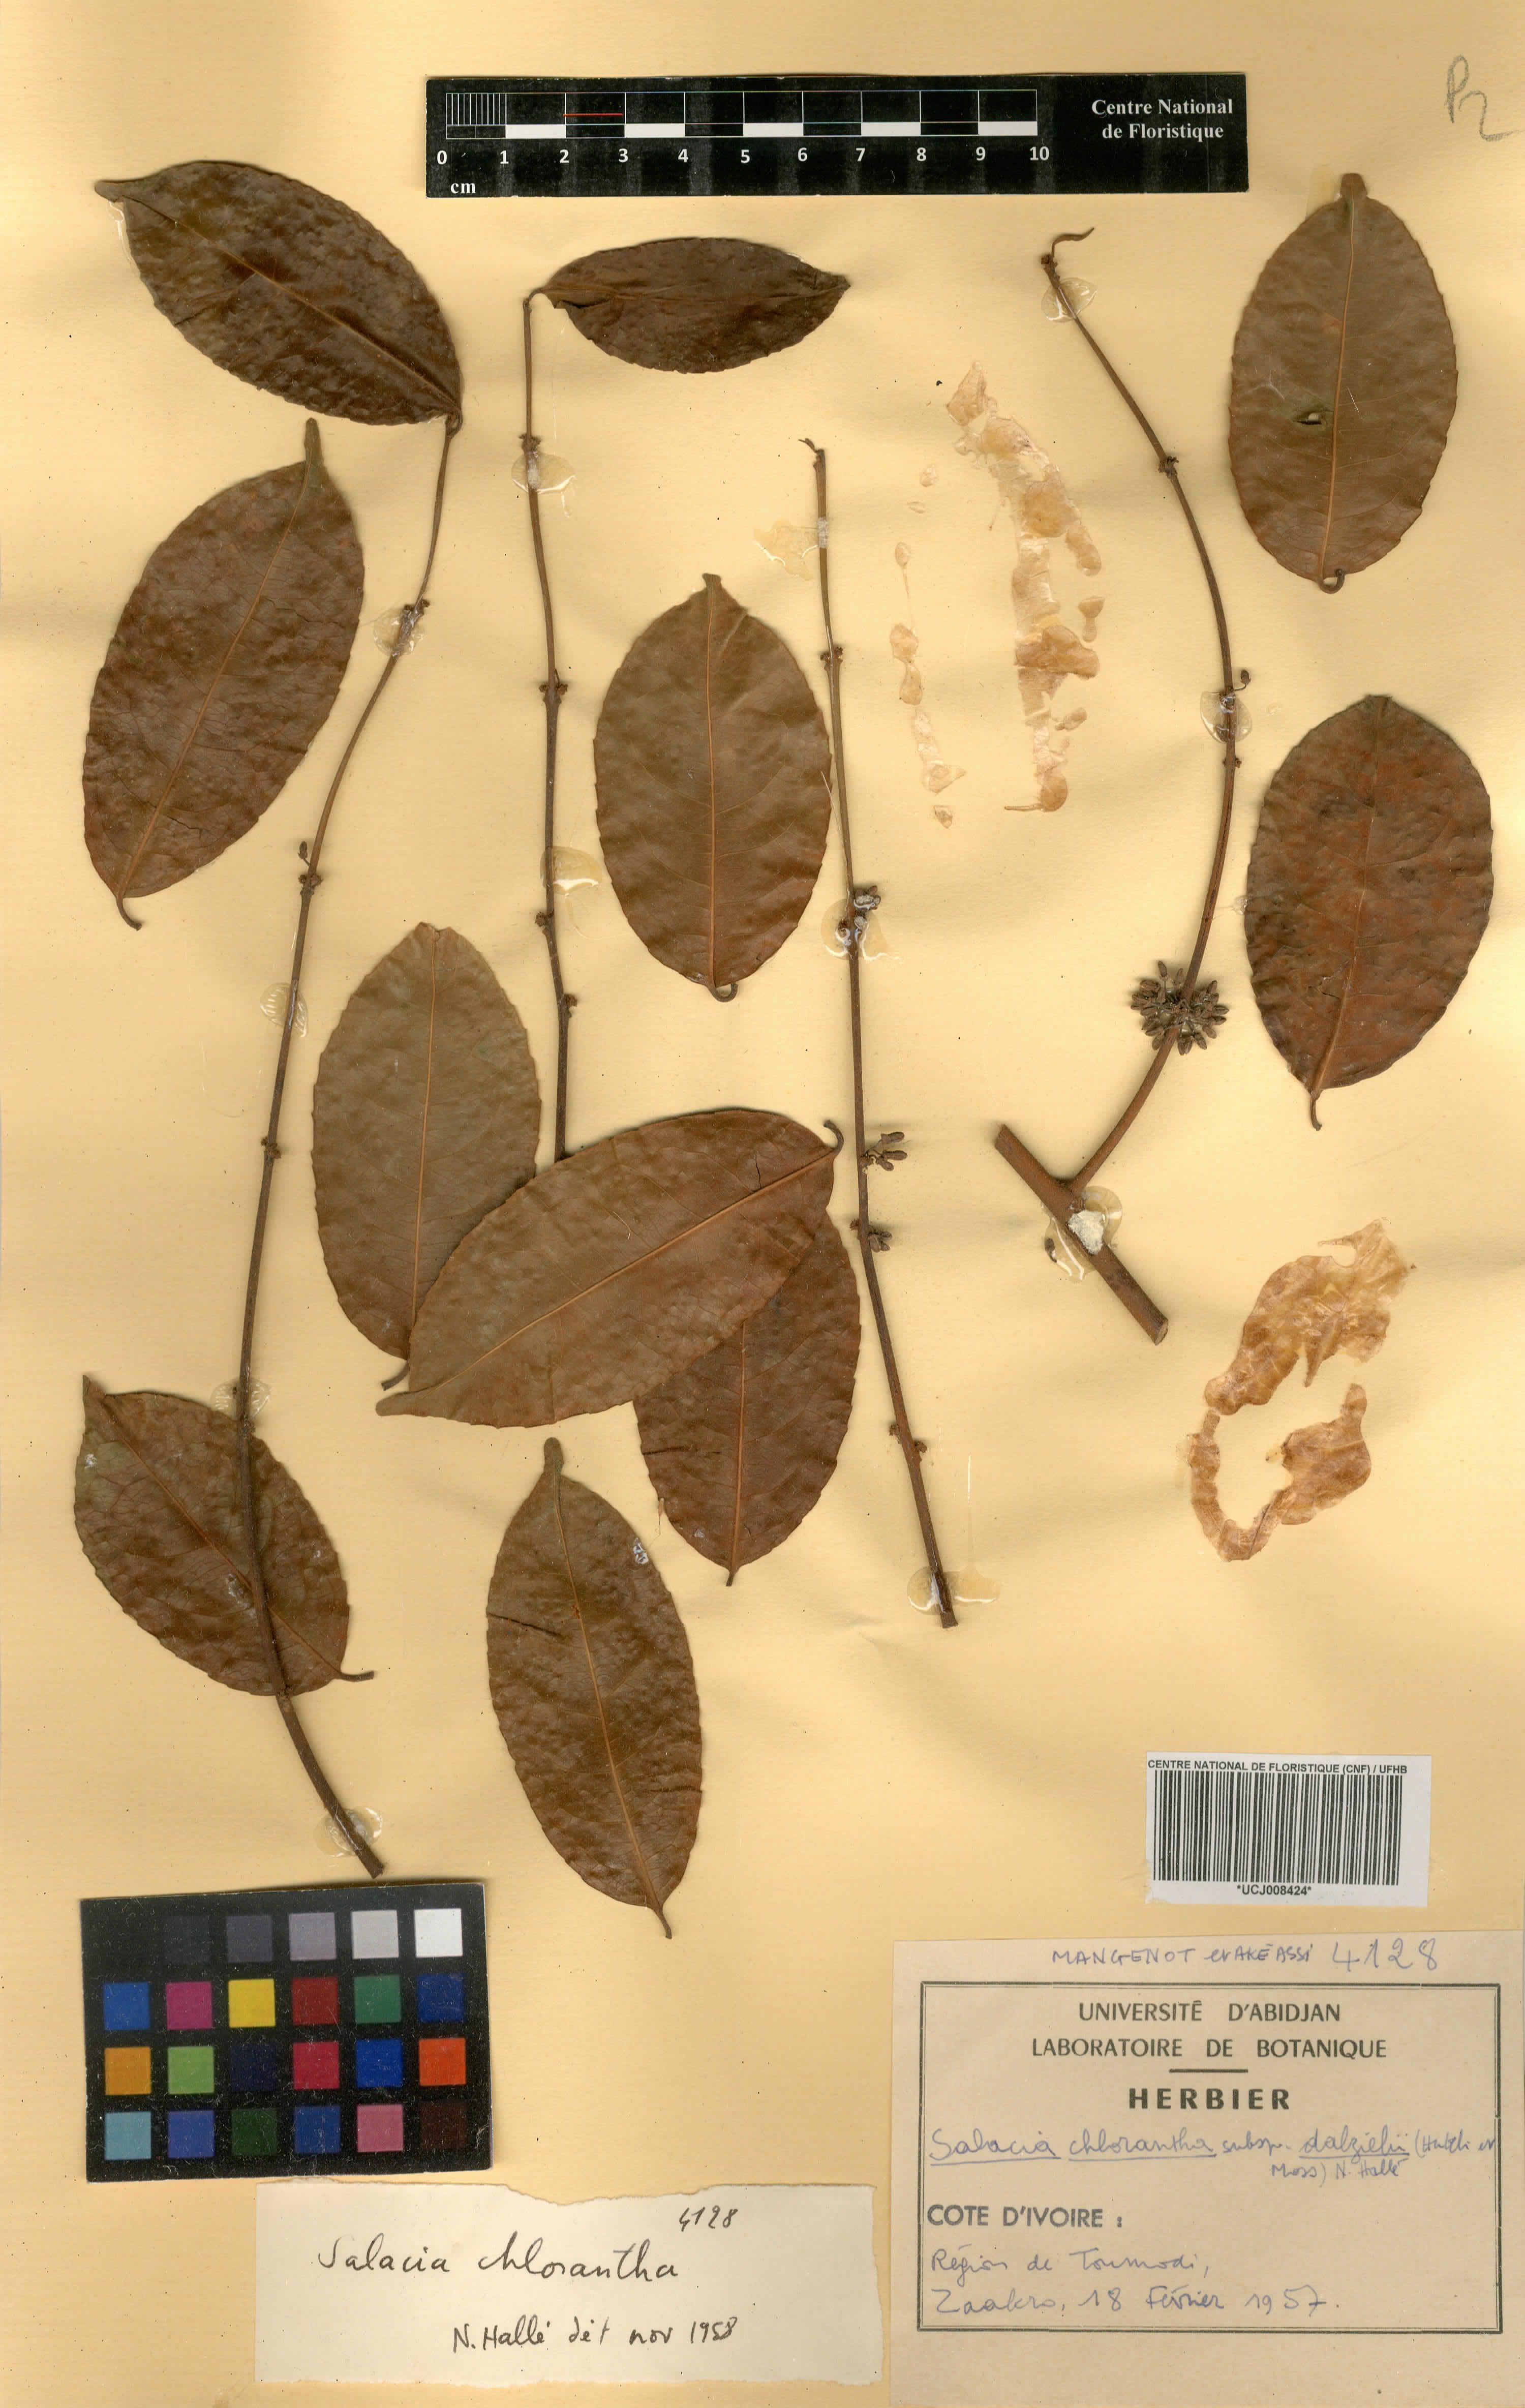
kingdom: Plantae
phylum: Tracheophyta
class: Magnoliopsida
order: Celastrales
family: Celastraceae
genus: Salacia
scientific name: Salacia chlorantha
